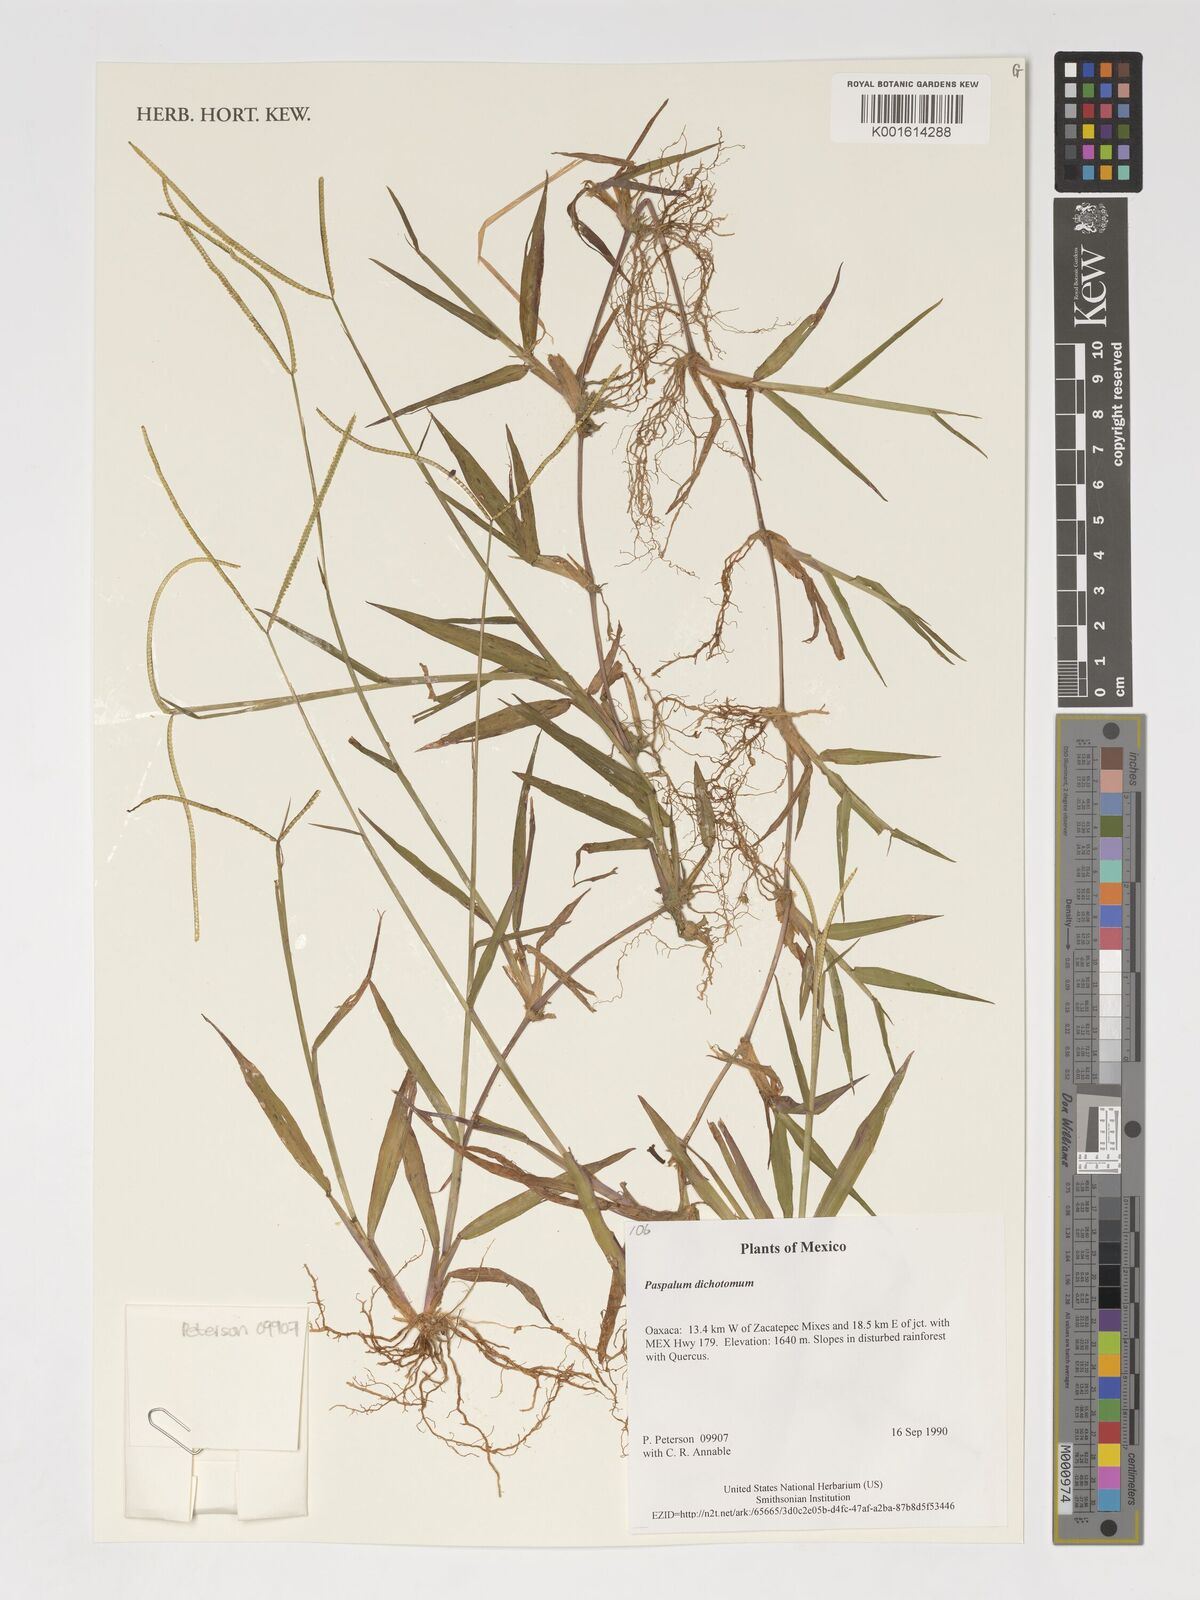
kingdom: Plantae
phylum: Tracheophyta
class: Liliopsida
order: Poales
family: Poaceae
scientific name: Poaceae
